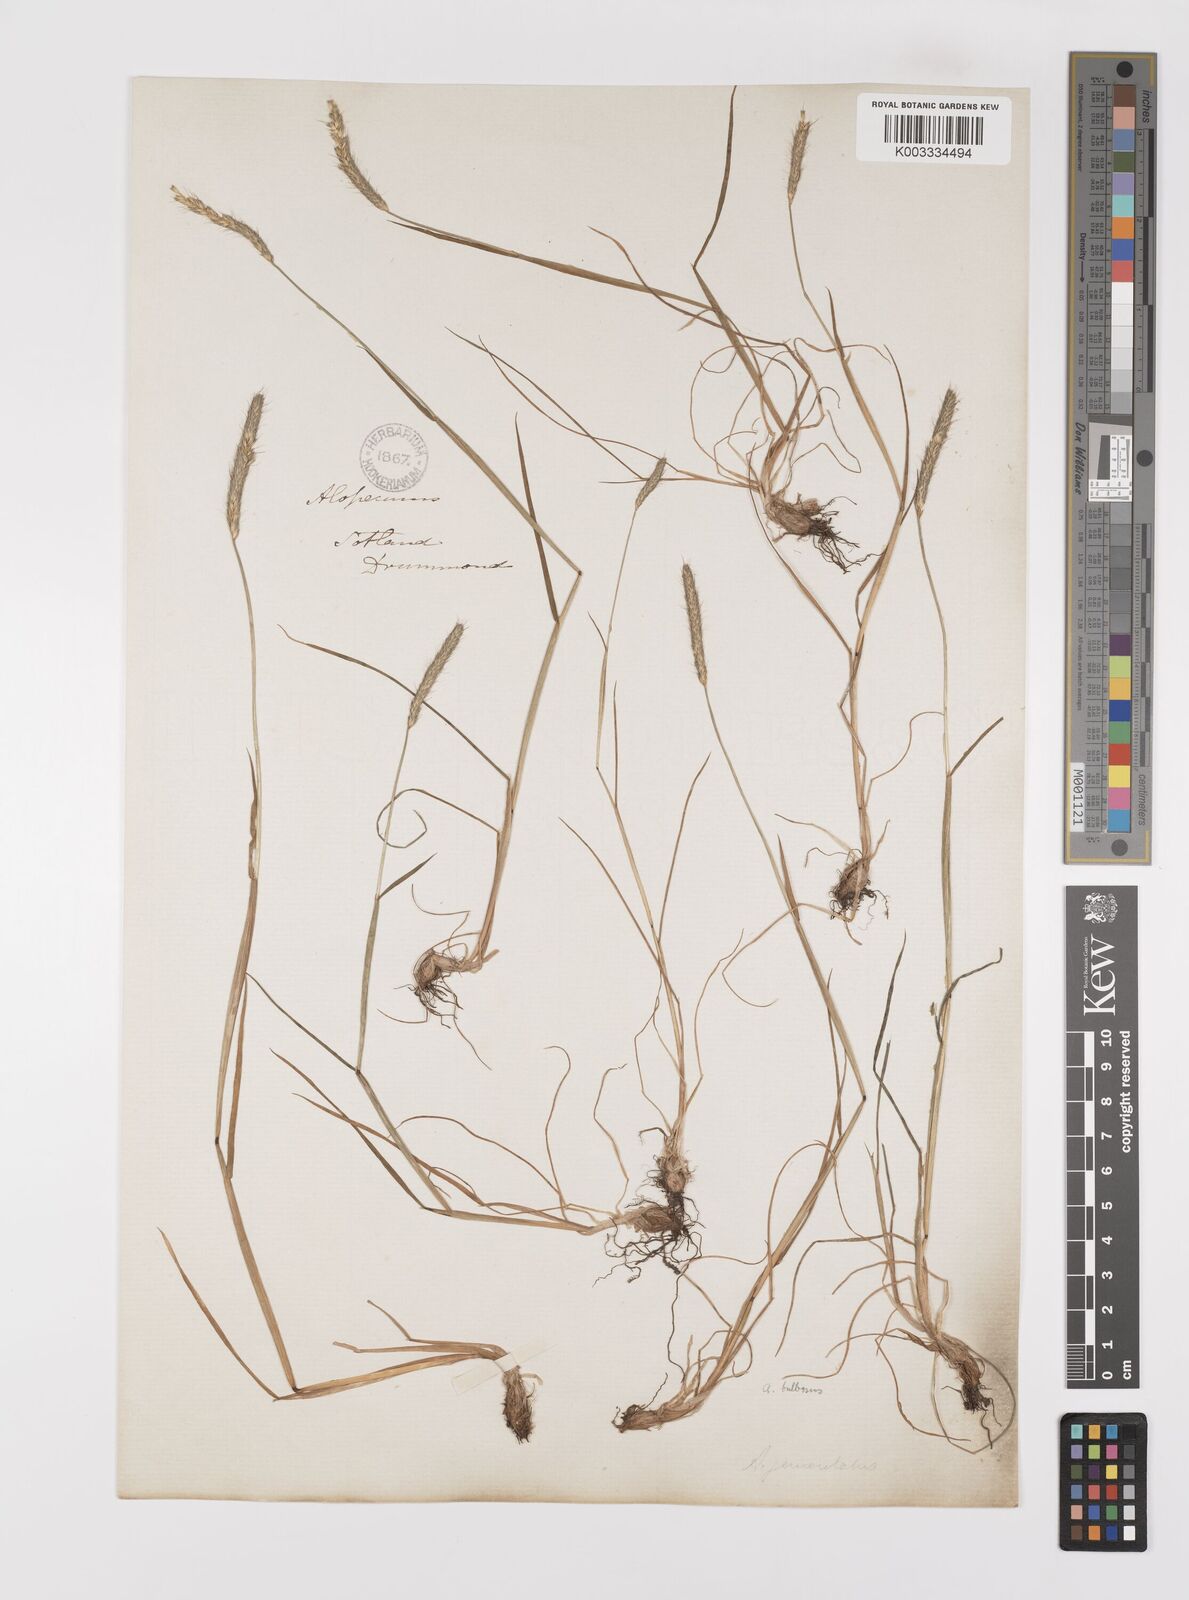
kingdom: Plantae
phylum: Tracheophyta
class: Liliopsida
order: Poales
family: Poaceae
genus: Alopecurus
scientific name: Alopecurus bulbosus
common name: Bulbous foxtail
